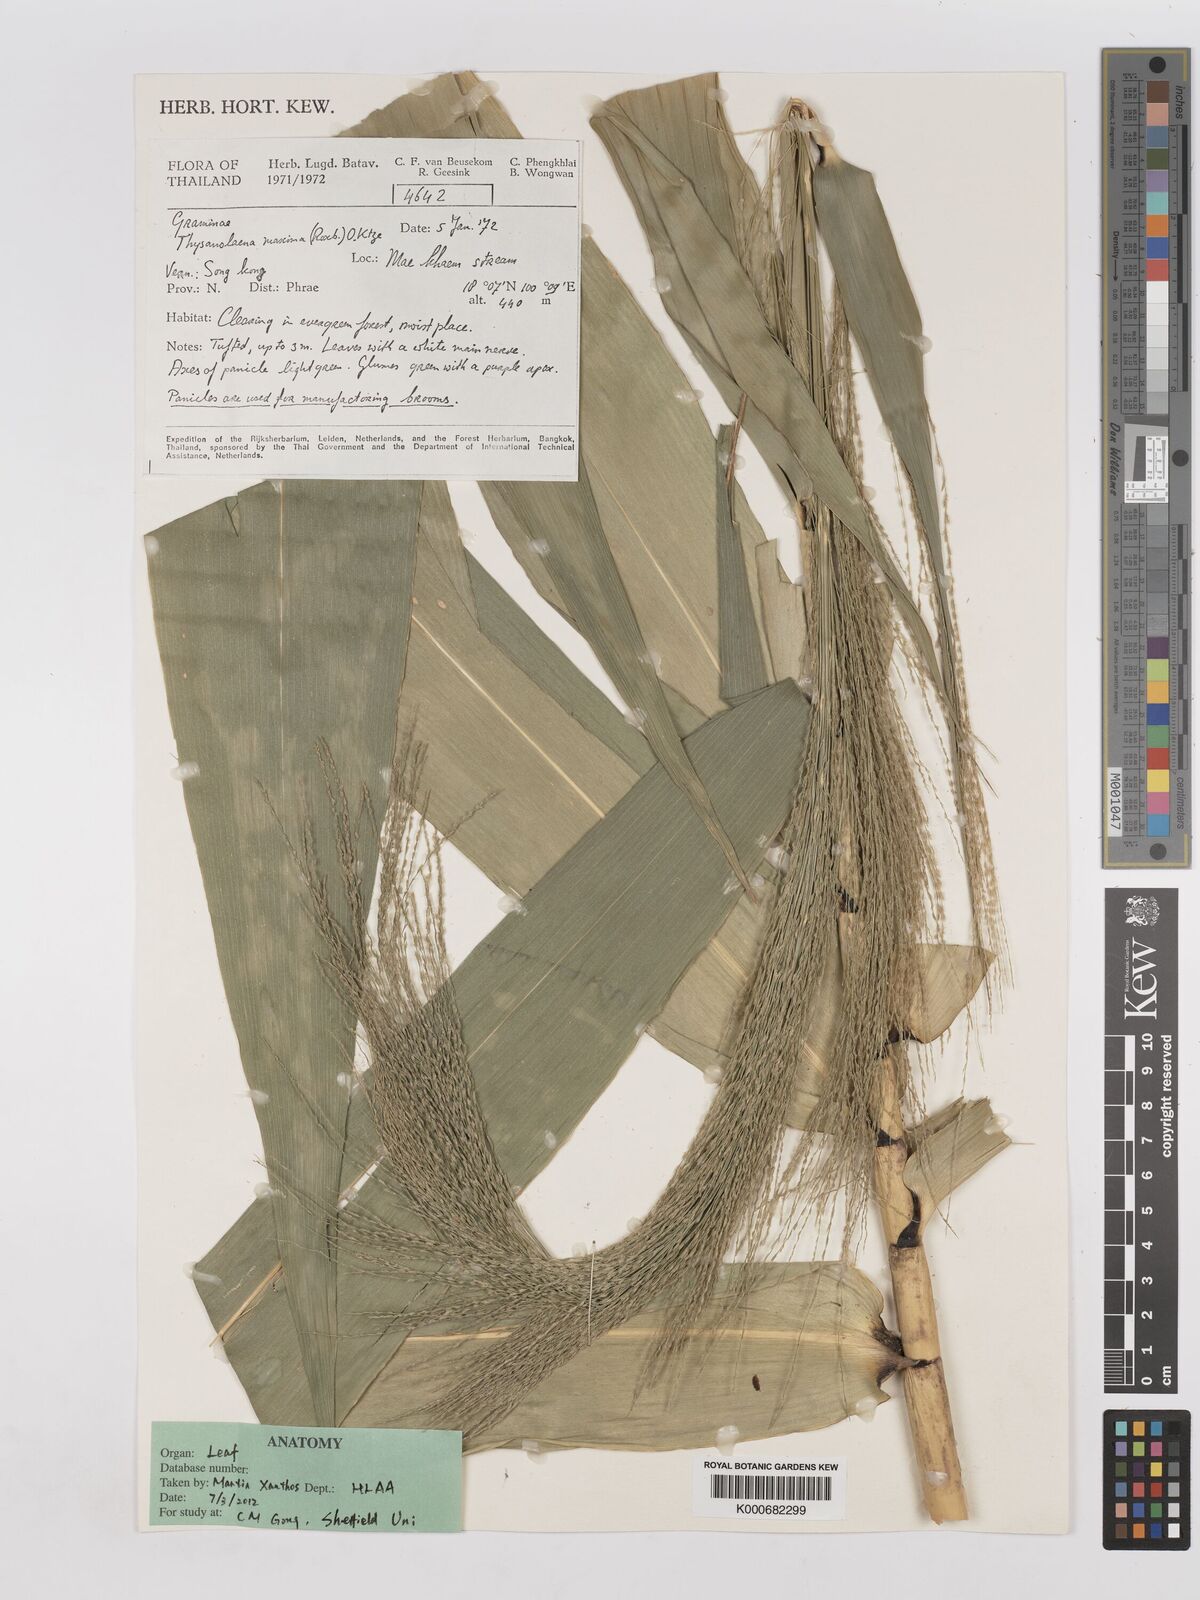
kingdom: Plantae
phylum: Tracheophyta
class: Liliopsida
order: Poales
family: Poaceae
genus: Thysanolaena
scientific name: Thysanolaena latifolia
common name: Tiger grass
